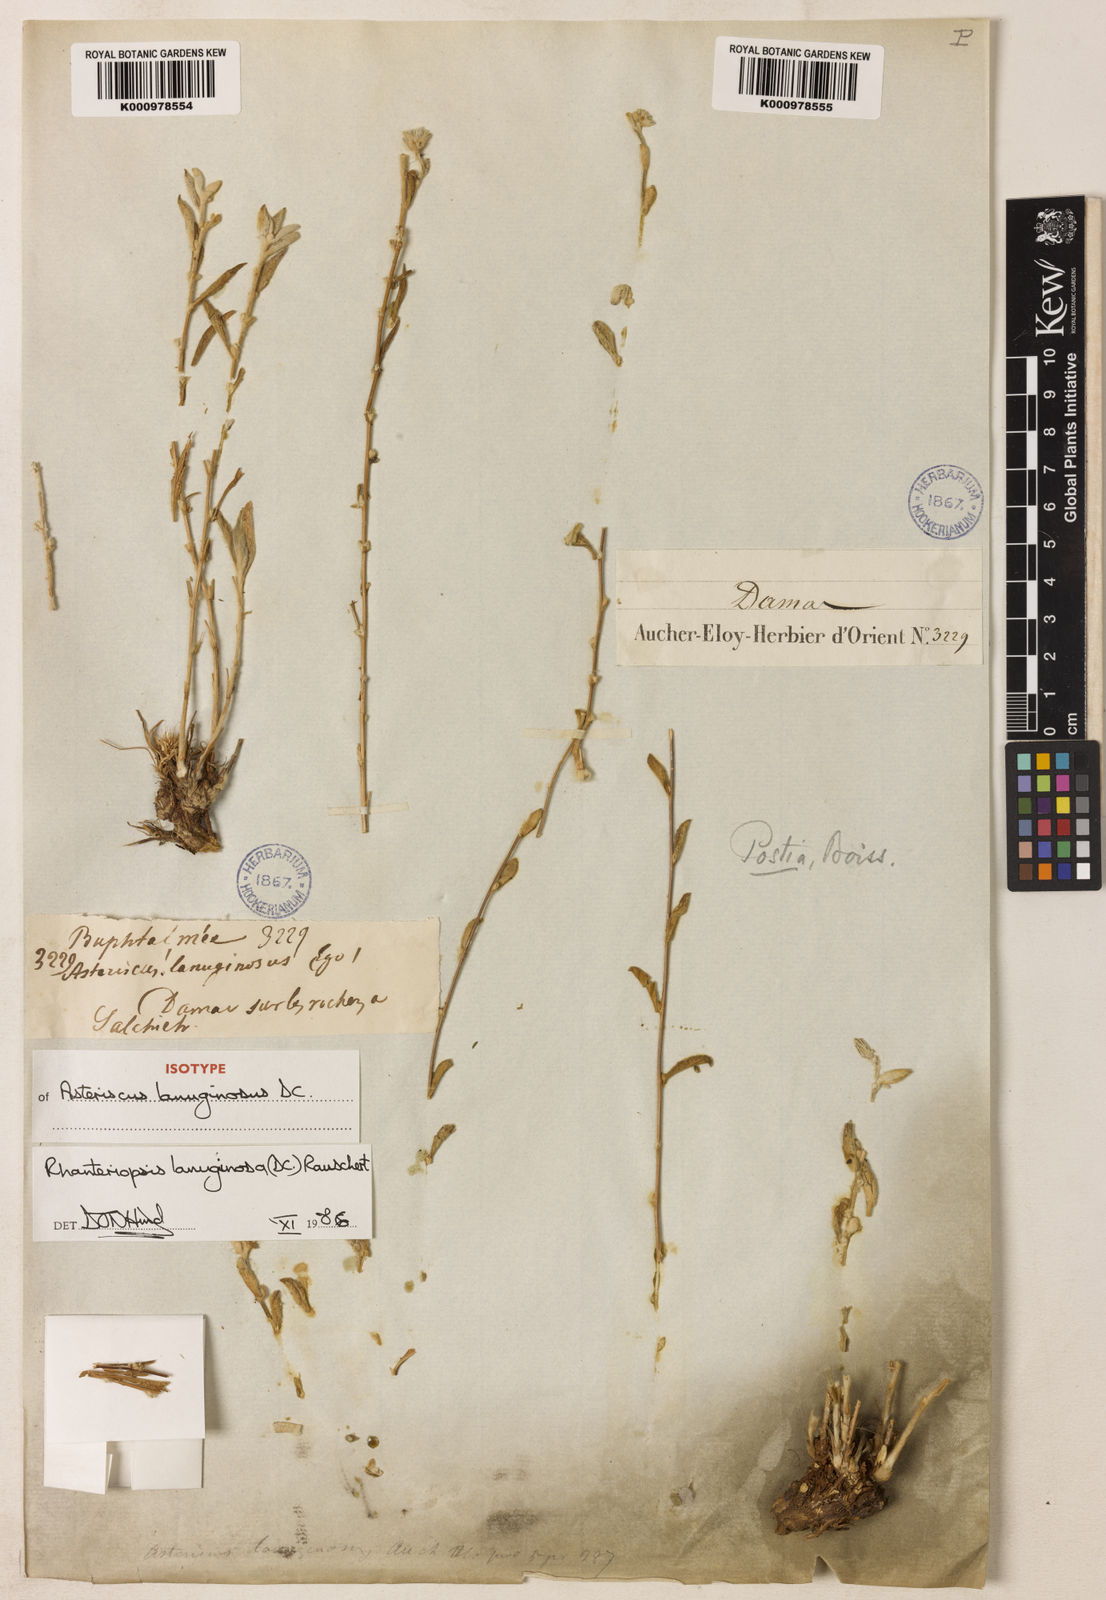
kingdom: Plantae
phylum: Tracheophyta
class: Magnoliopsida
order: Asterales
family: Asteraceae
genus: Rhanteriopsis
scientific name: Rhanteriopsis lanuginosa
